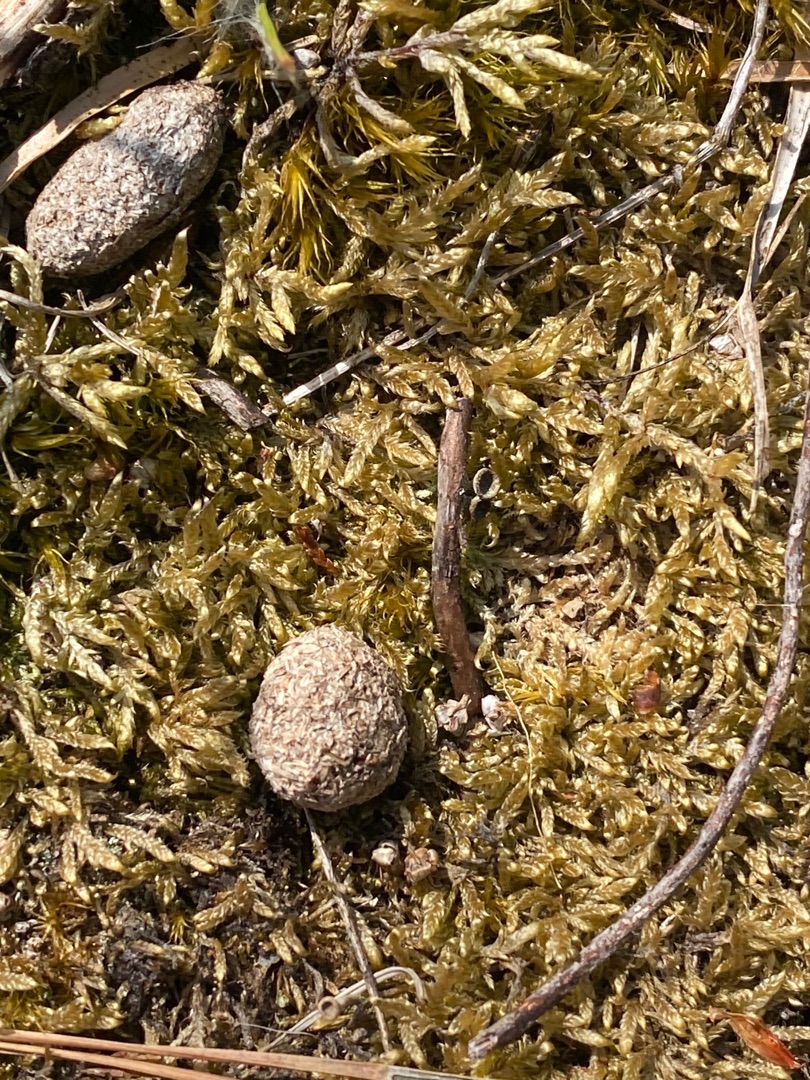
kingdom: Animalia
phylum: Chordata
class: Mammalia
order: Lagomorpha
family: Leporidae
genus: Lepus
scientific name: Lepus europaeus
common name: Hare
